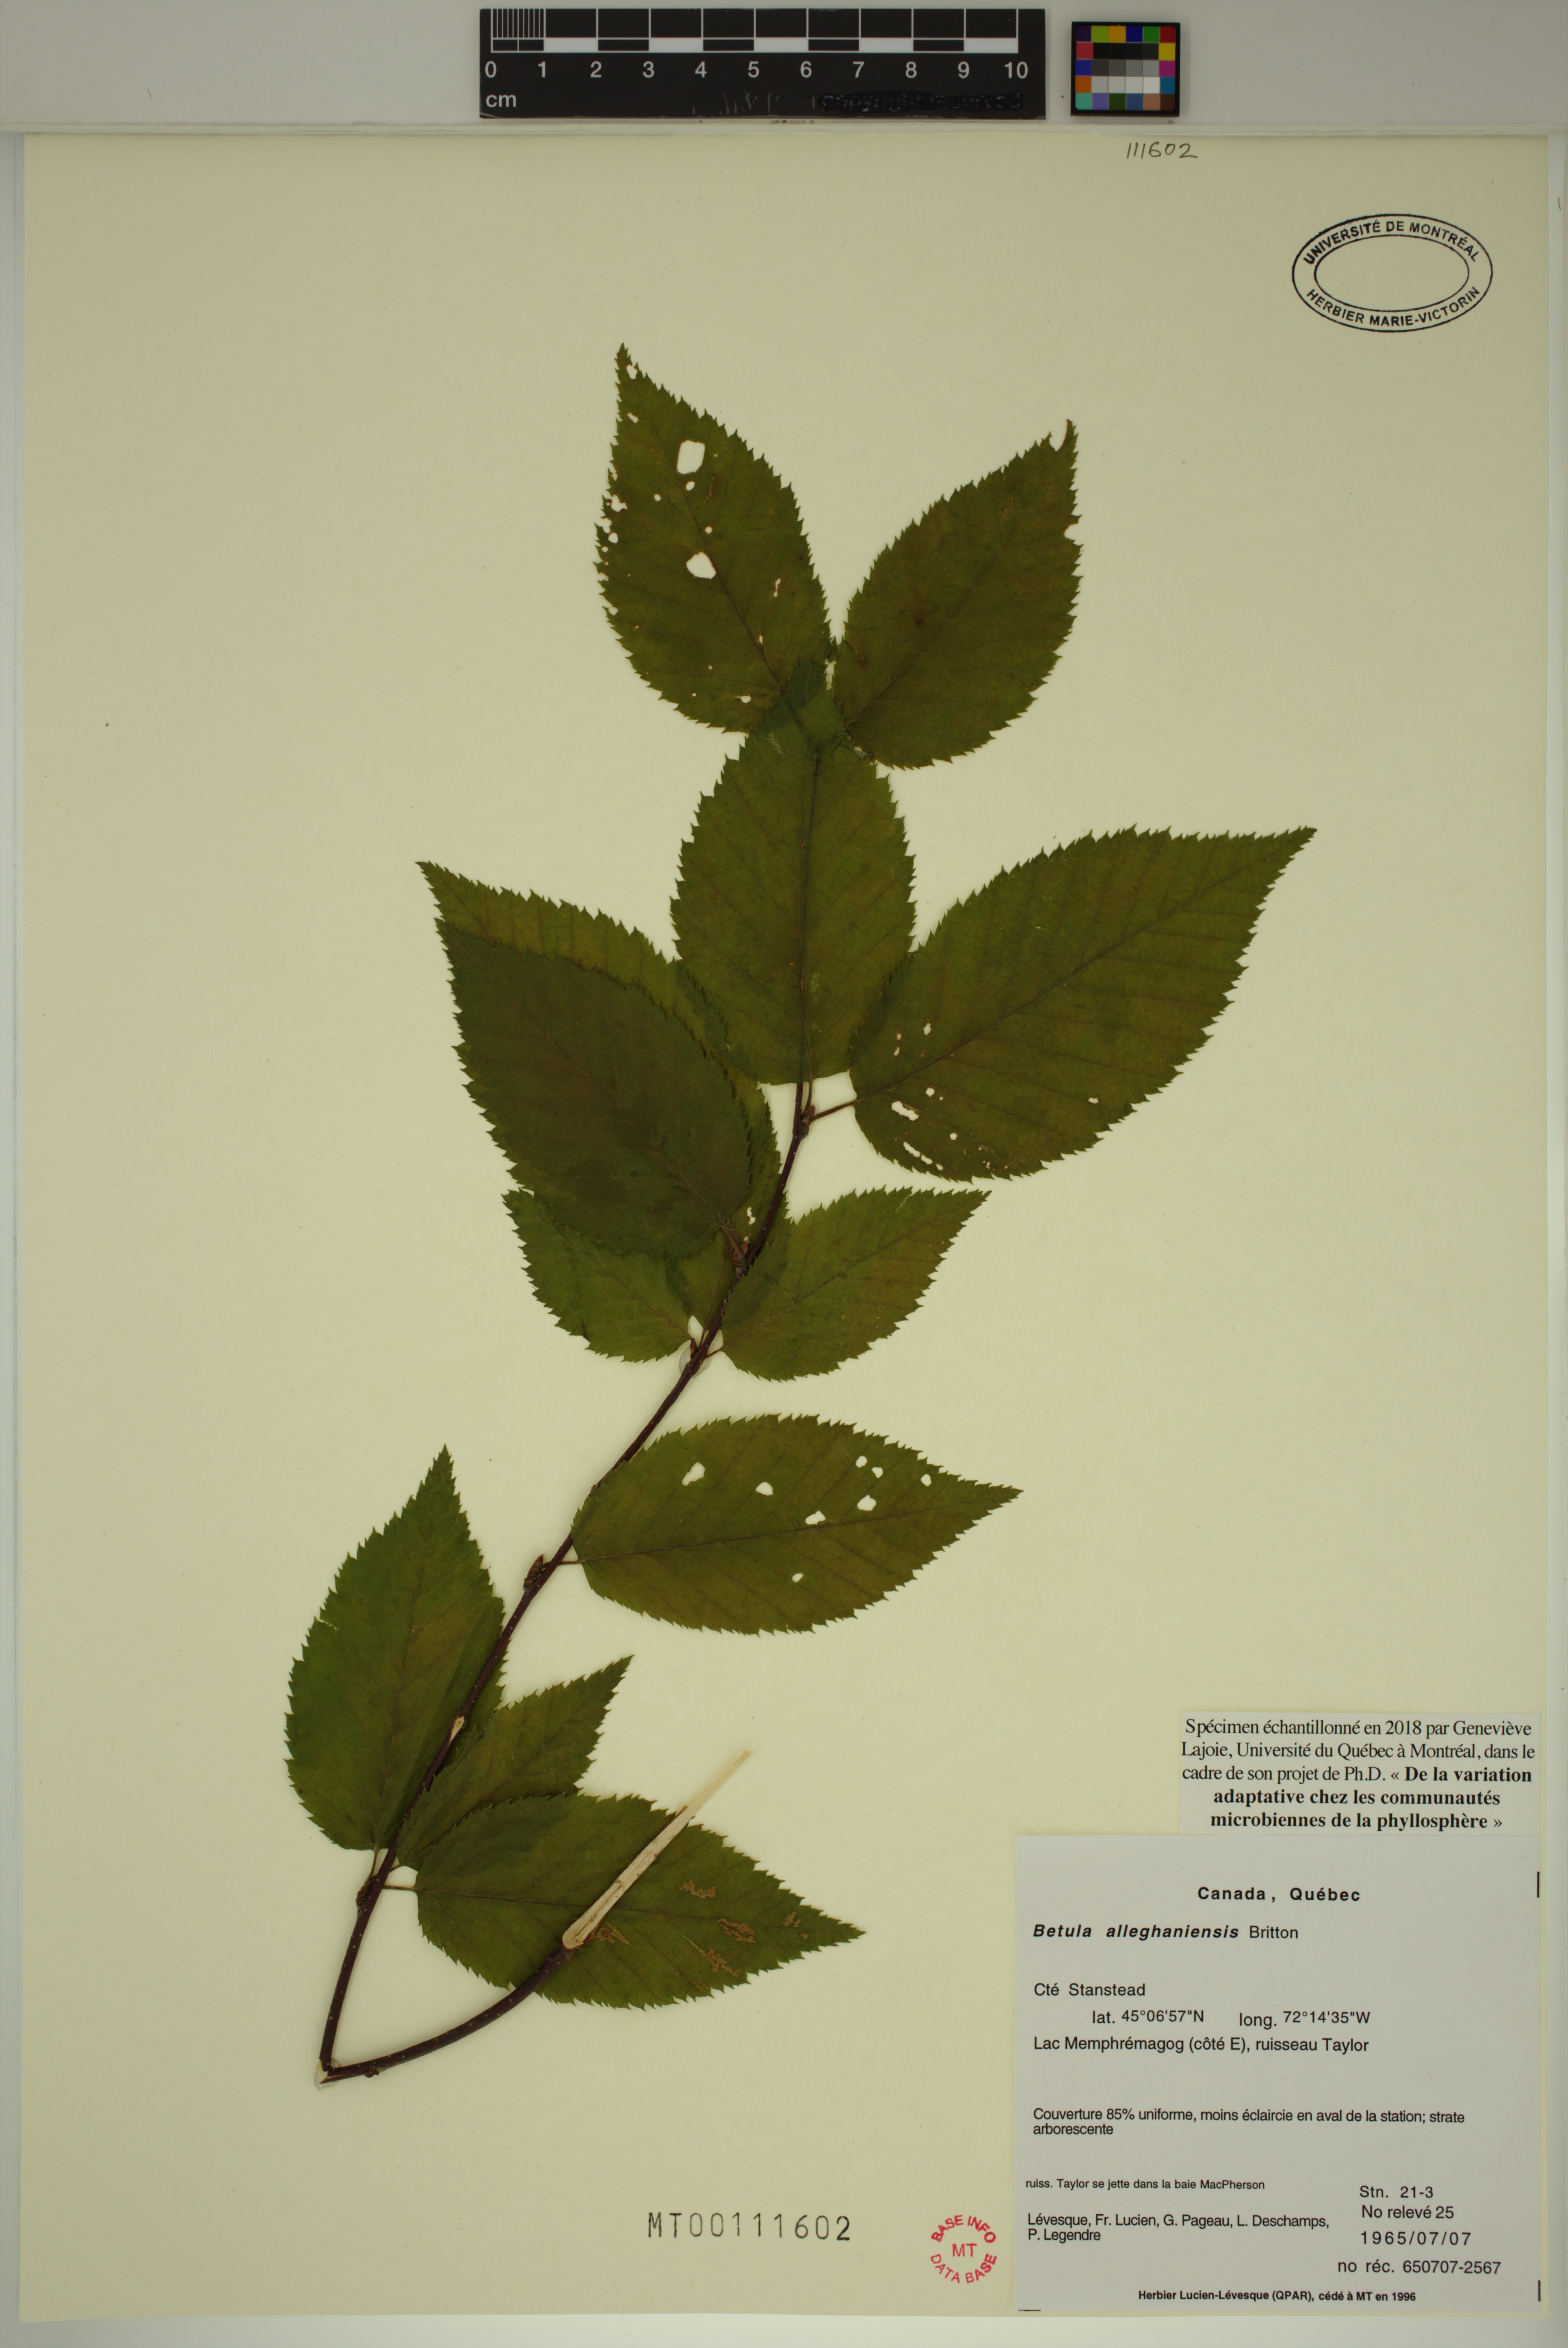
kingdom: Plantae
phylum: Tracheophyta
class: Magnoliopsida
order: Fagales
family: Betulaceae
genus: Betula
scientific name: Betula alleghaniensis
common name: Yellow birch
